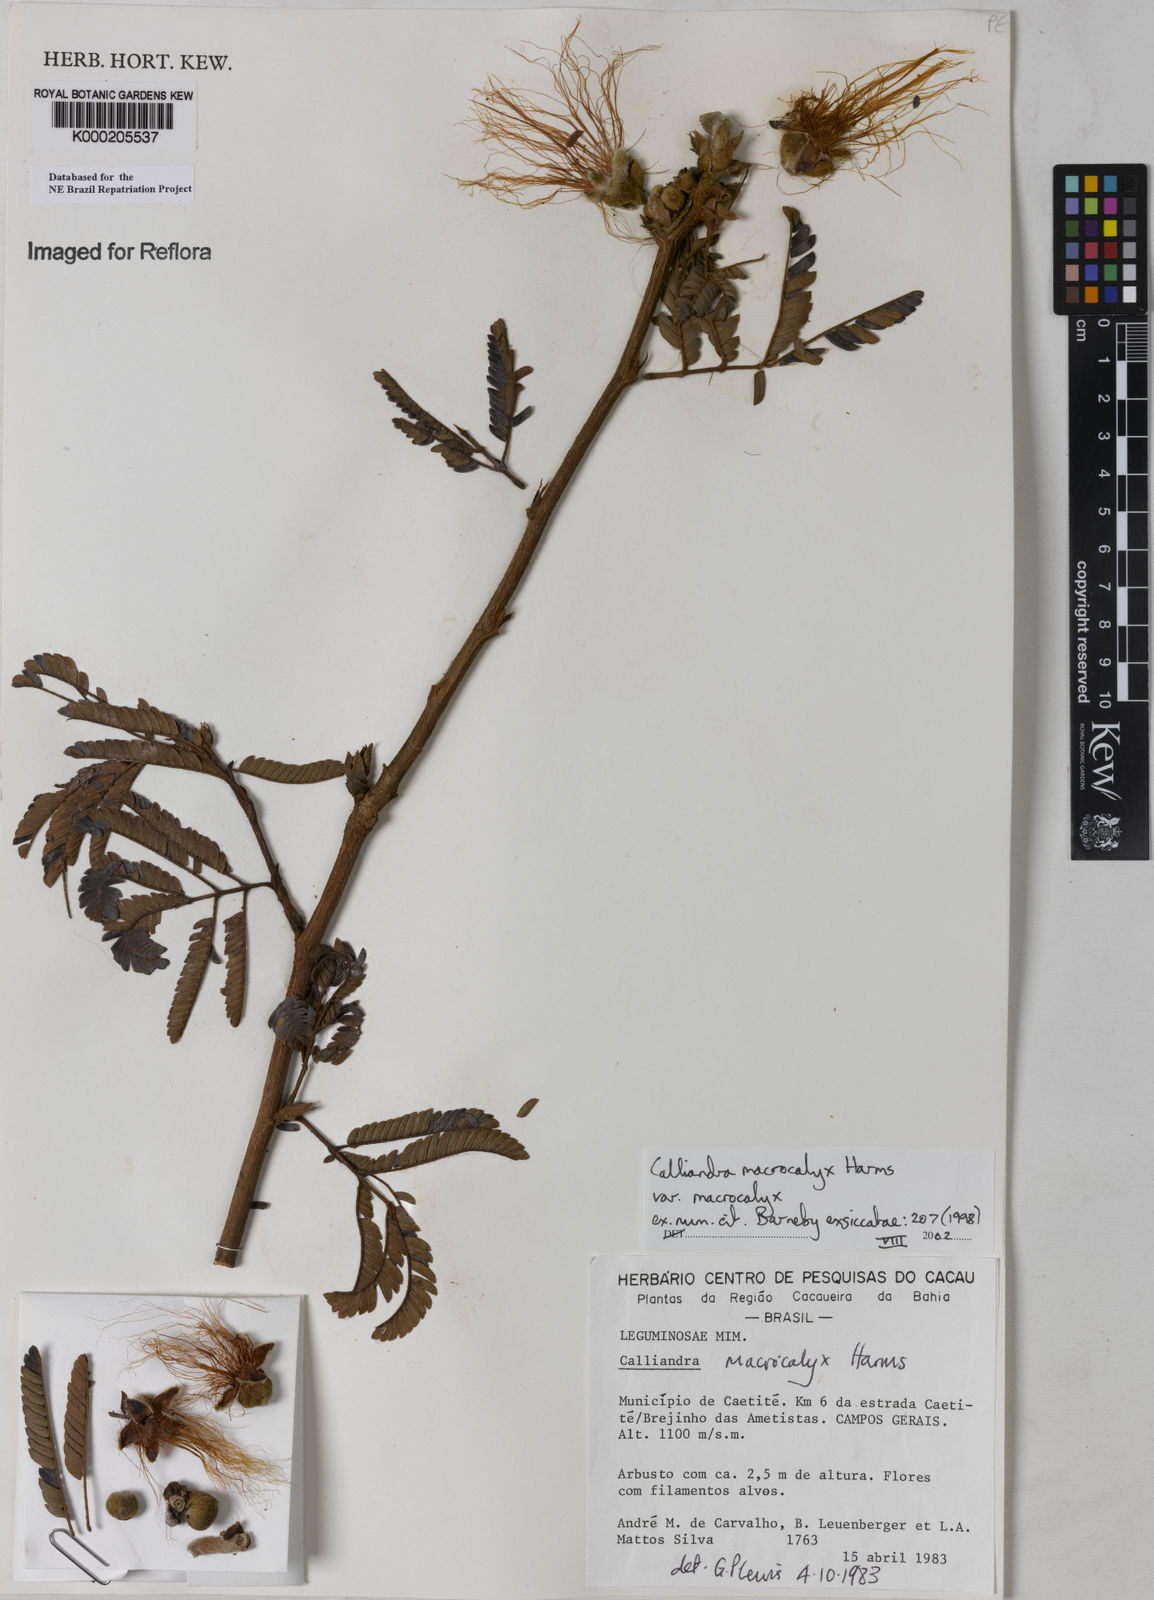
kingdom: Plantae
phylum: Tracheophyta
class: Magnoliopsida
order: Fabales
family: Fabaceae
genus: Calliandra
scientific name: Calliandra macrocalyx
